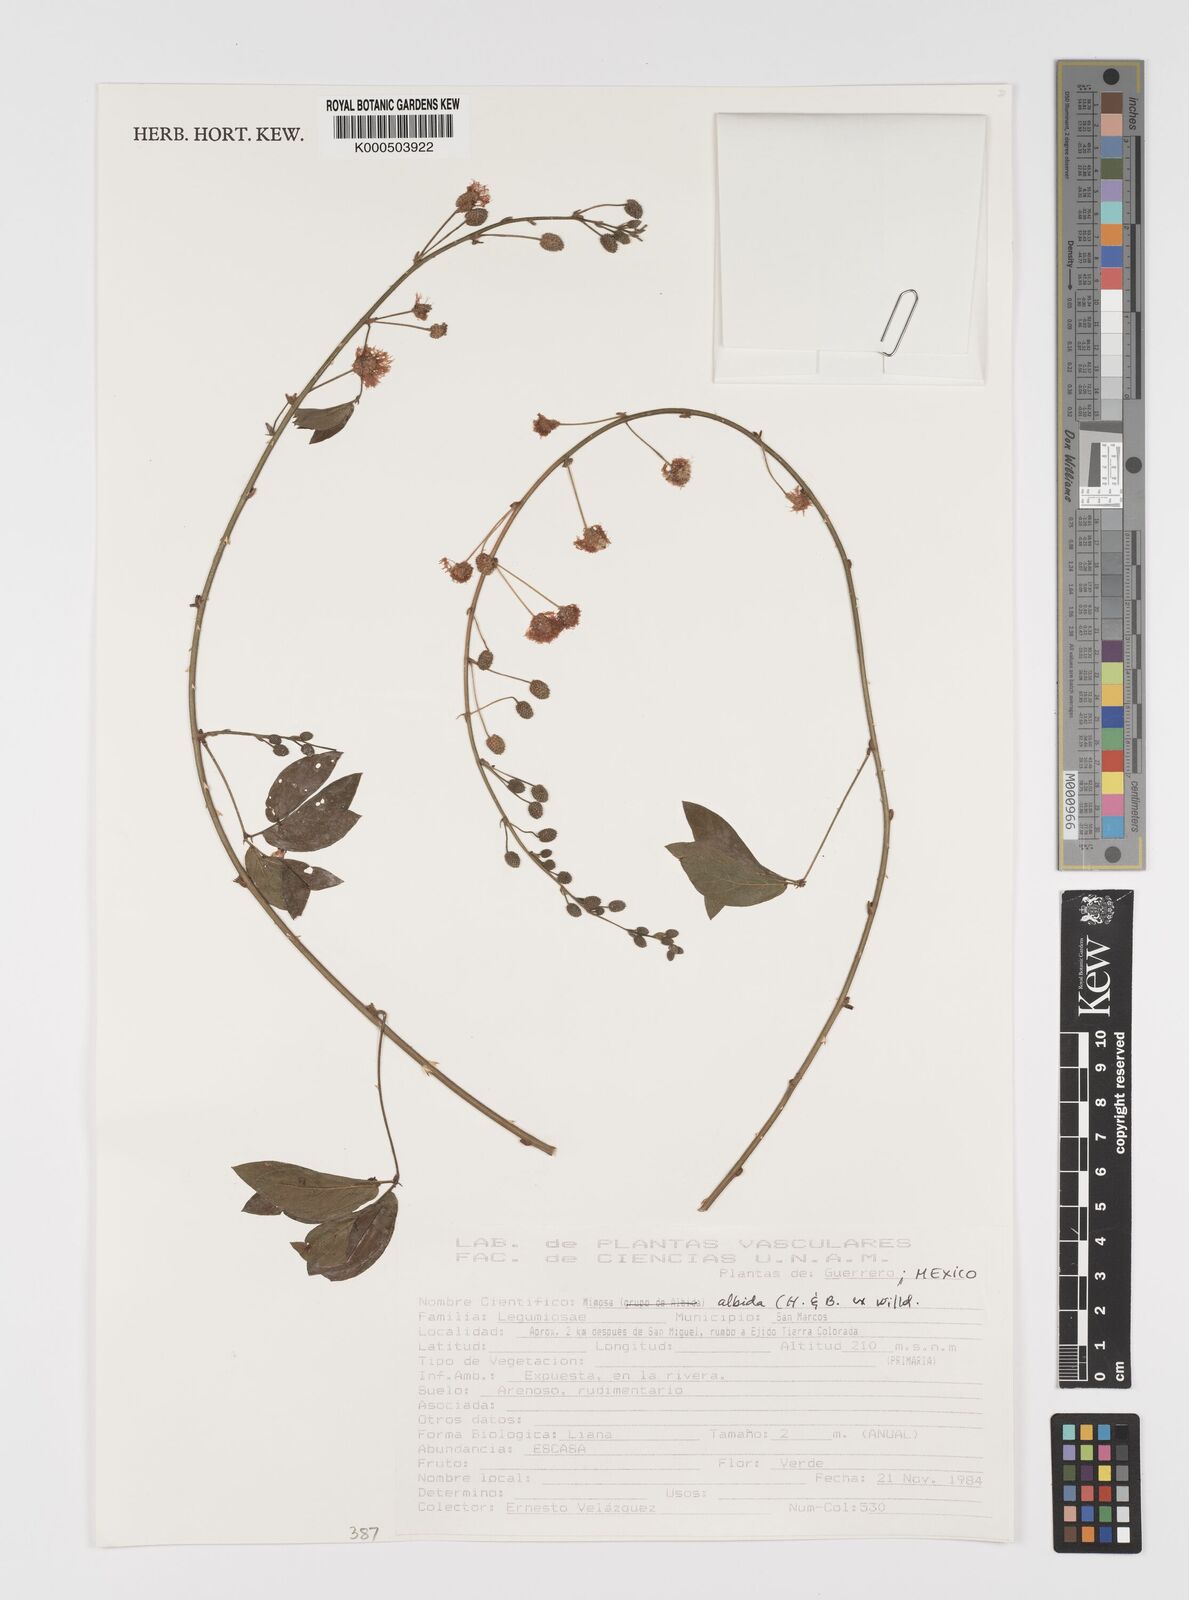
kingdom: Plantae
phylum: Tracheophyta
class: Magnoliopsida
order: Fabales
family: Fabaceae
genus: Mimosa
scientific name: Mimosa albida
